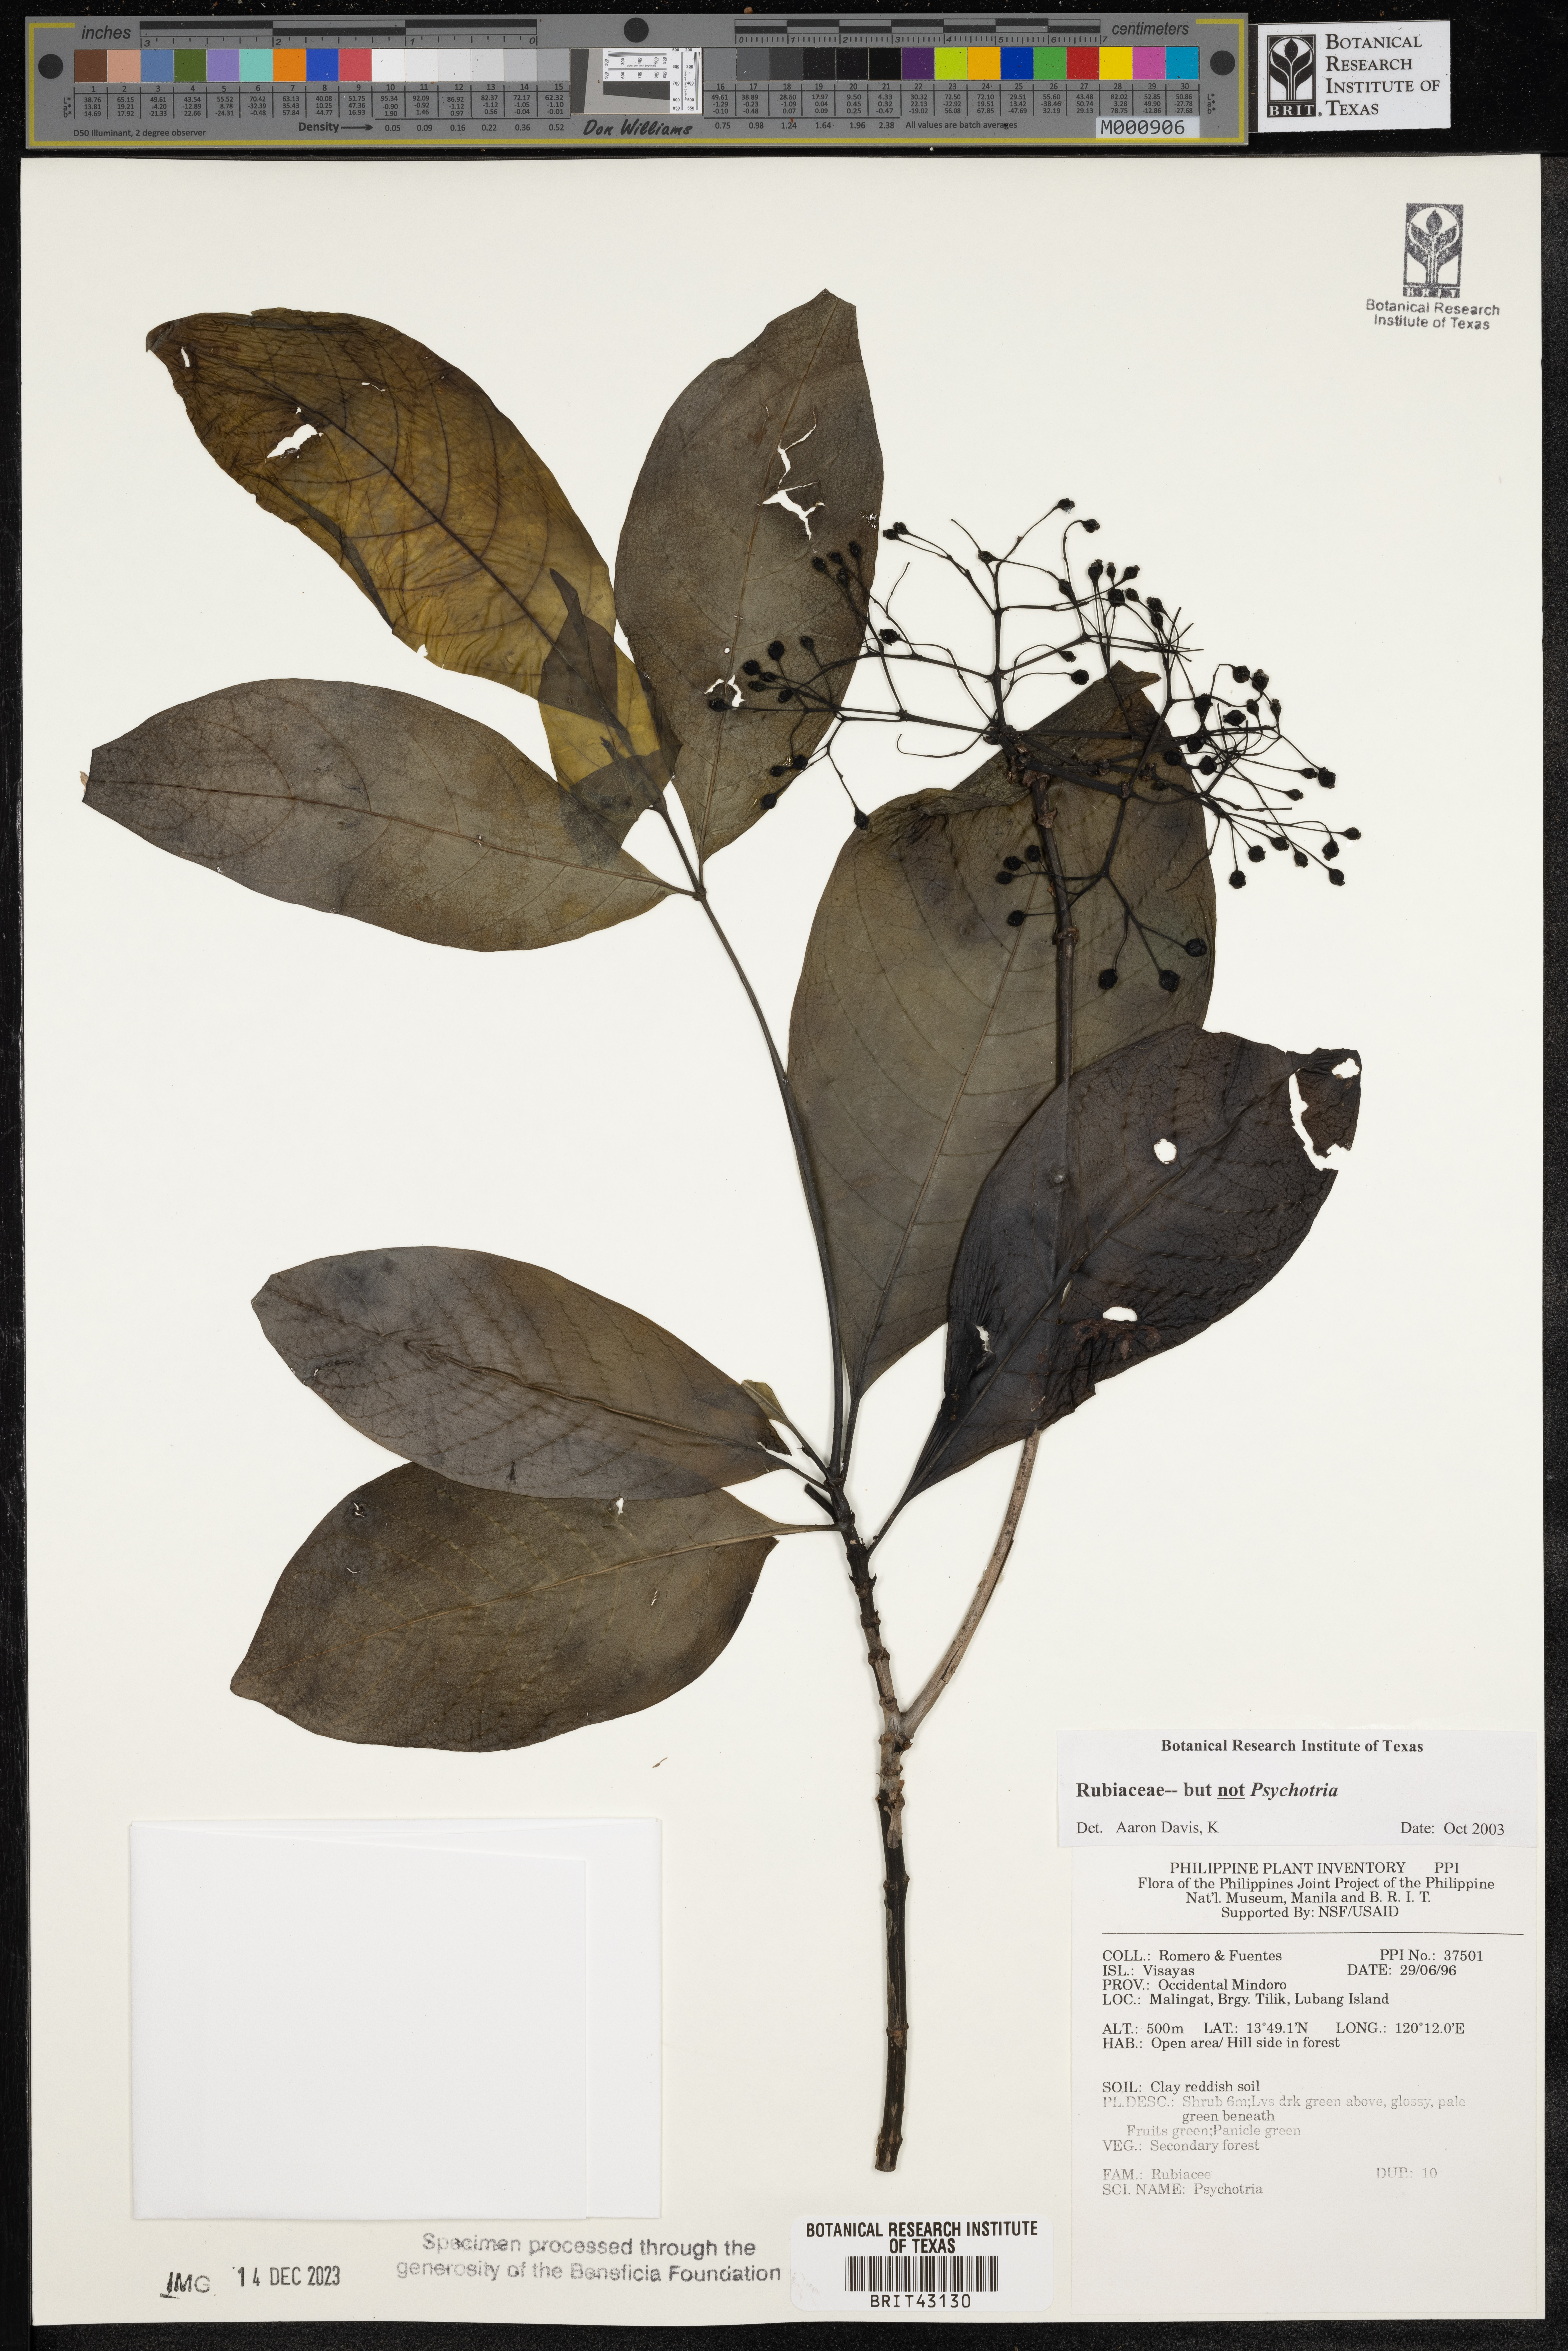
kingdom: Plantae
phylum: Tracheophyta
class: Magnoliopsida
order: Gentianales
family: Rubiaceae
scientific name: Rubiaceae
